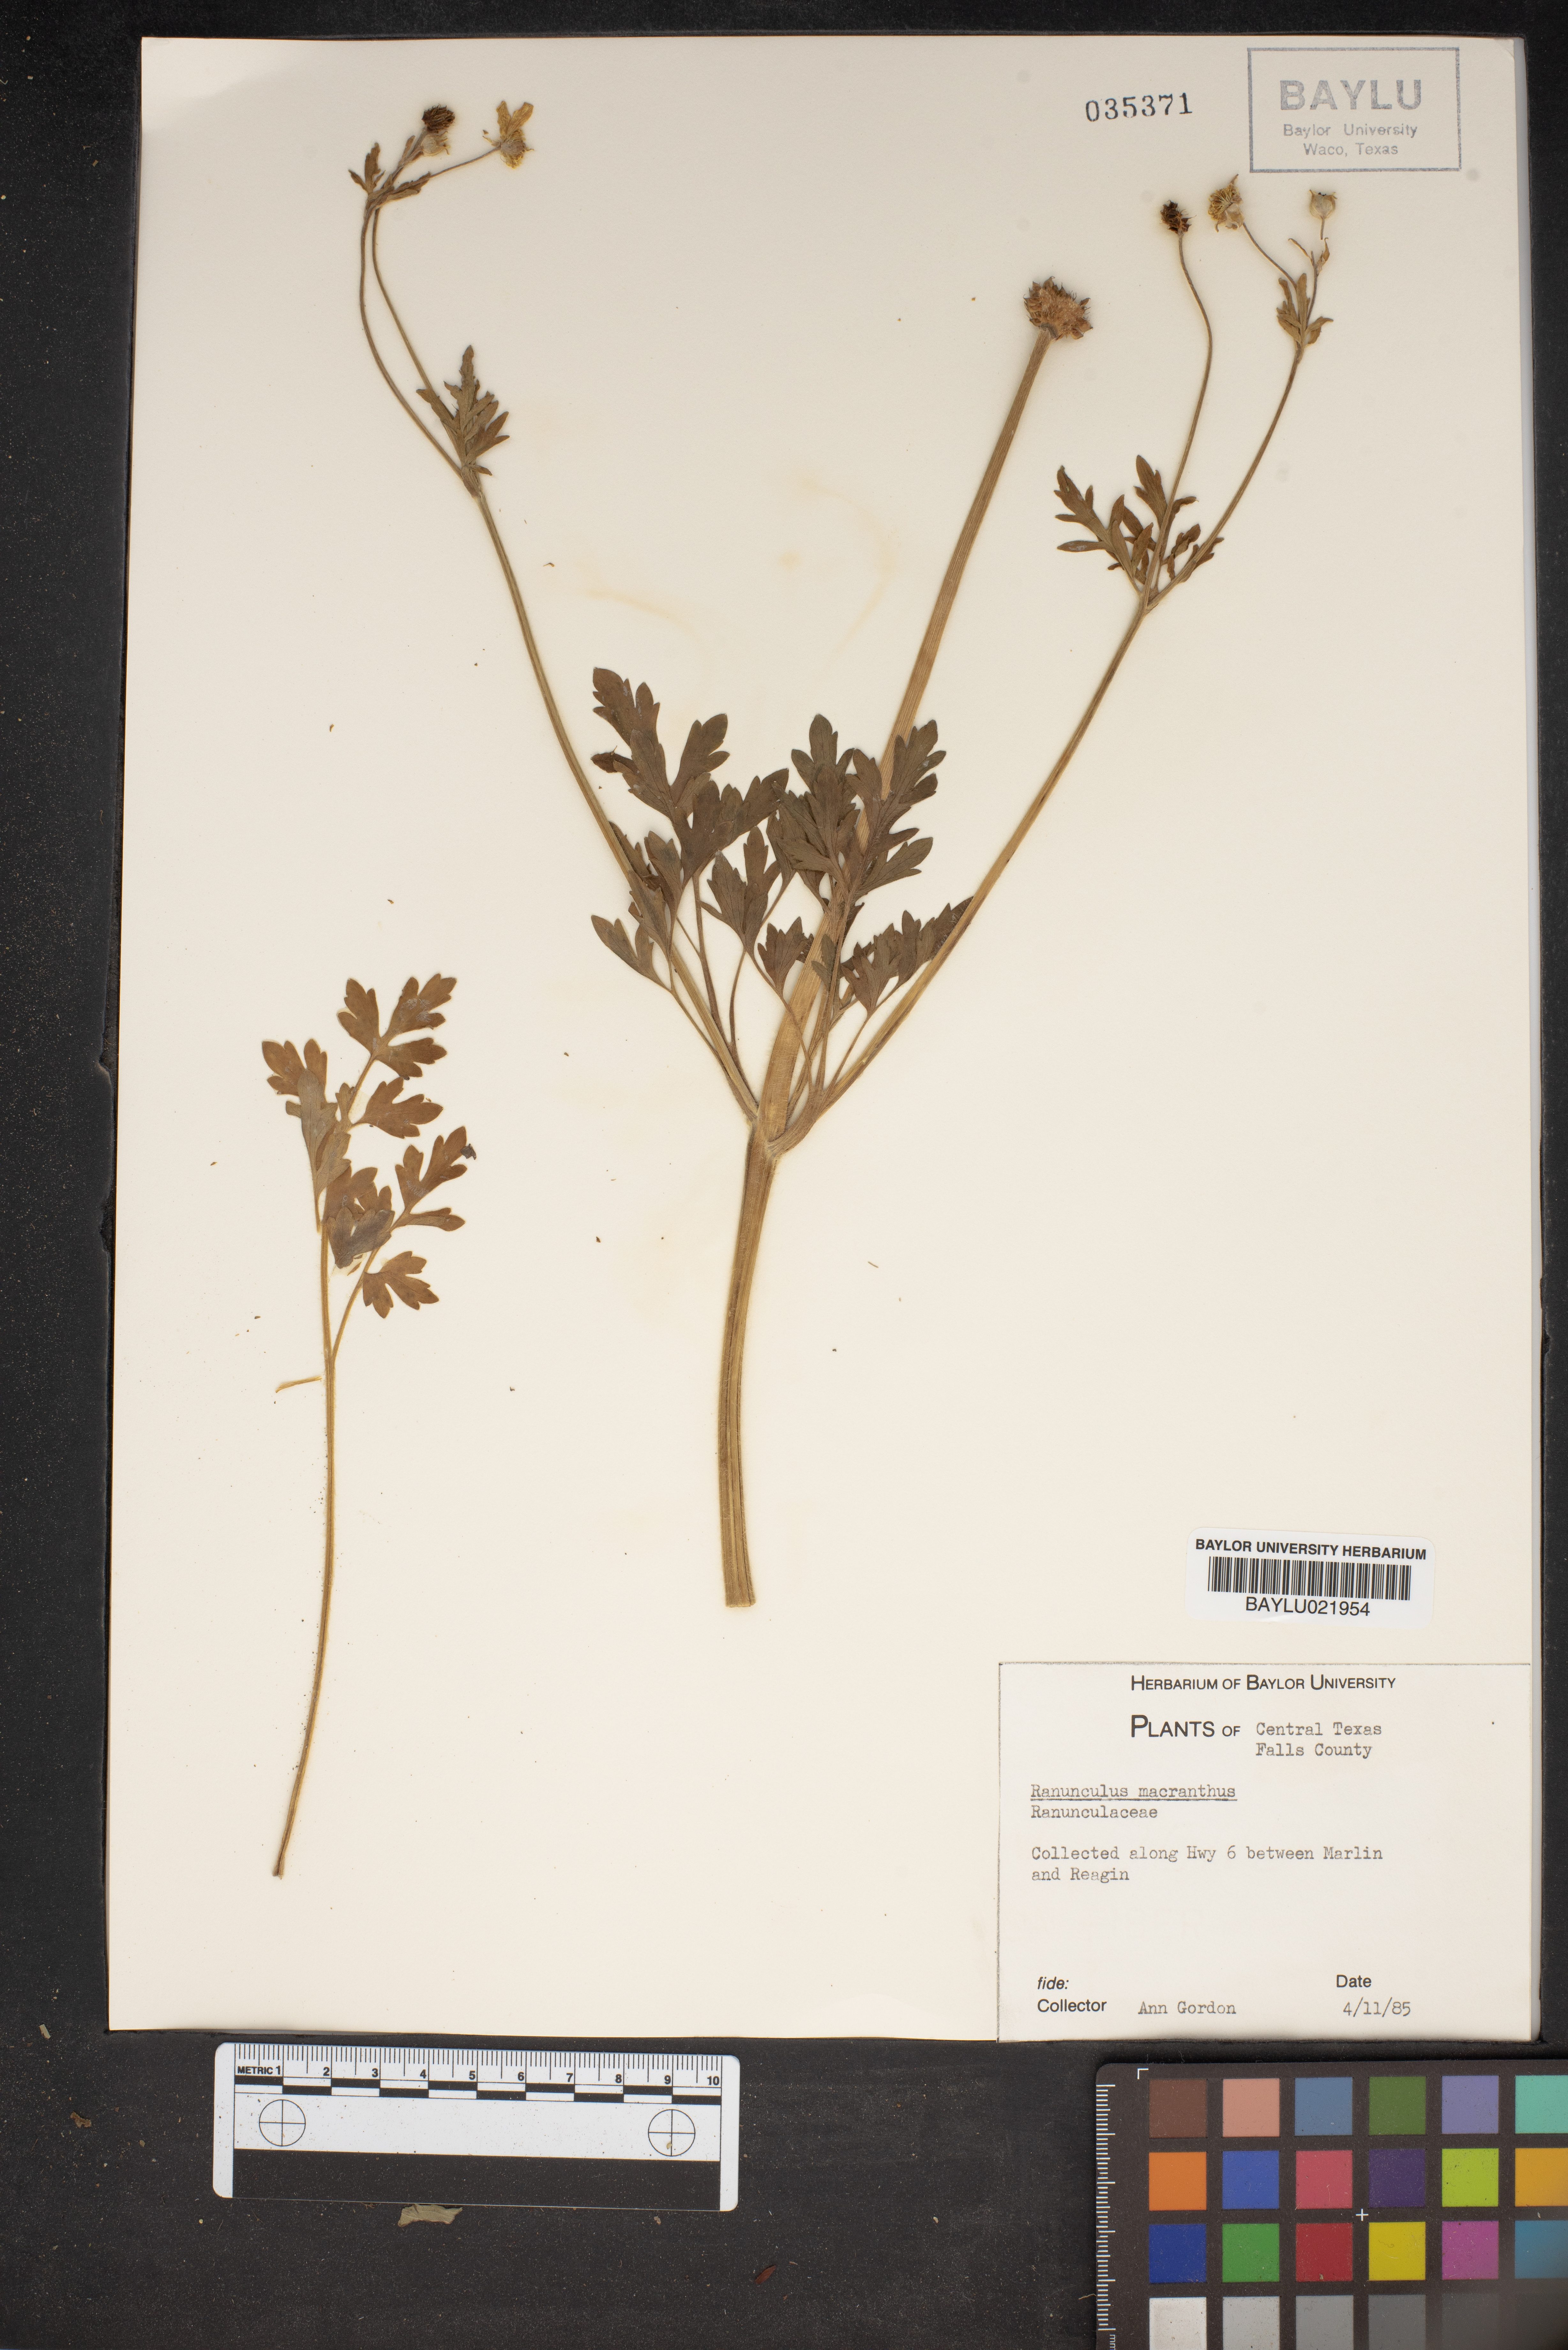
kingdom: Plantae
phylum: Tracheophyta
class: Magnoliopsida
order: Ranunculales
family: Ranunculaceae
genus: Ranunculus
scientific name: Ranunculus macranthus
